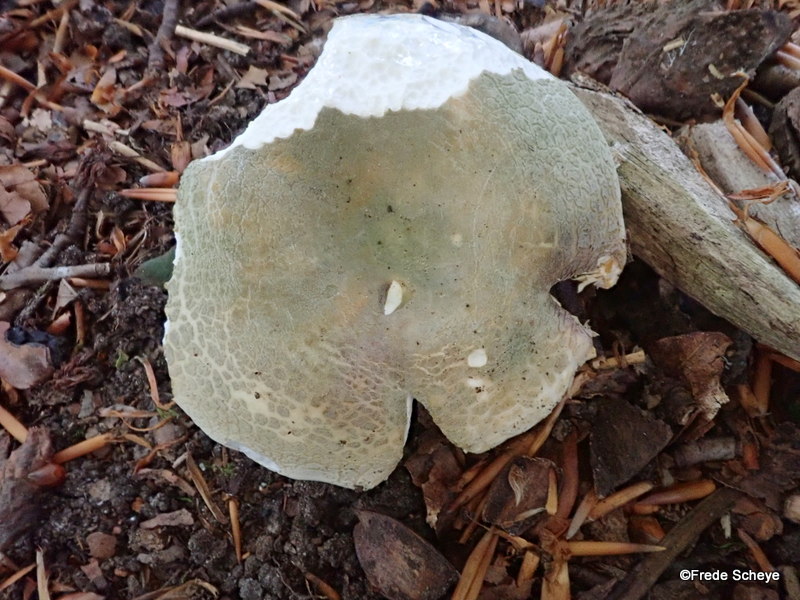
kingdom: Fungi
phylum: Basidiomycota
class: Agaricomycetes
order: Russulales
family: Russulaceae
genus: Russula
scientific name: Russula virescens
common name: spanskgrøn skørhat
